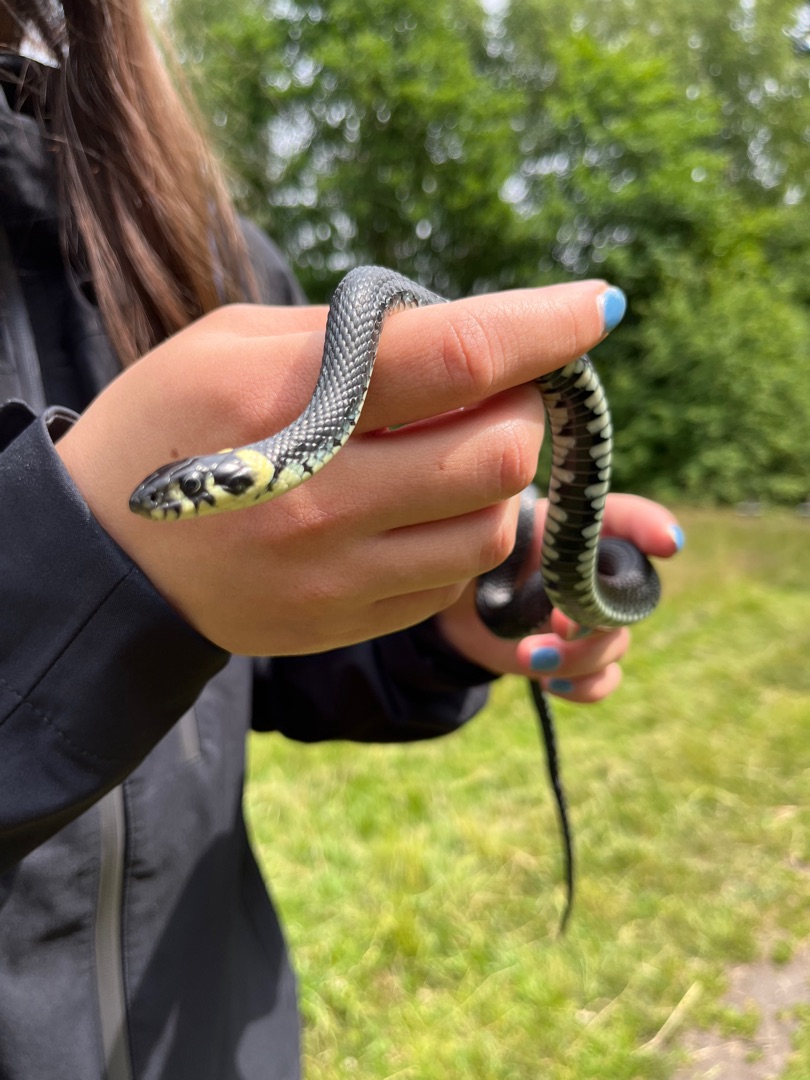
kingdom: Animalia
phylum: Chordata
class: Squamata
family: Colubridae
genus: Natrix
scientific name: Natrix natrix
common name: Snog
